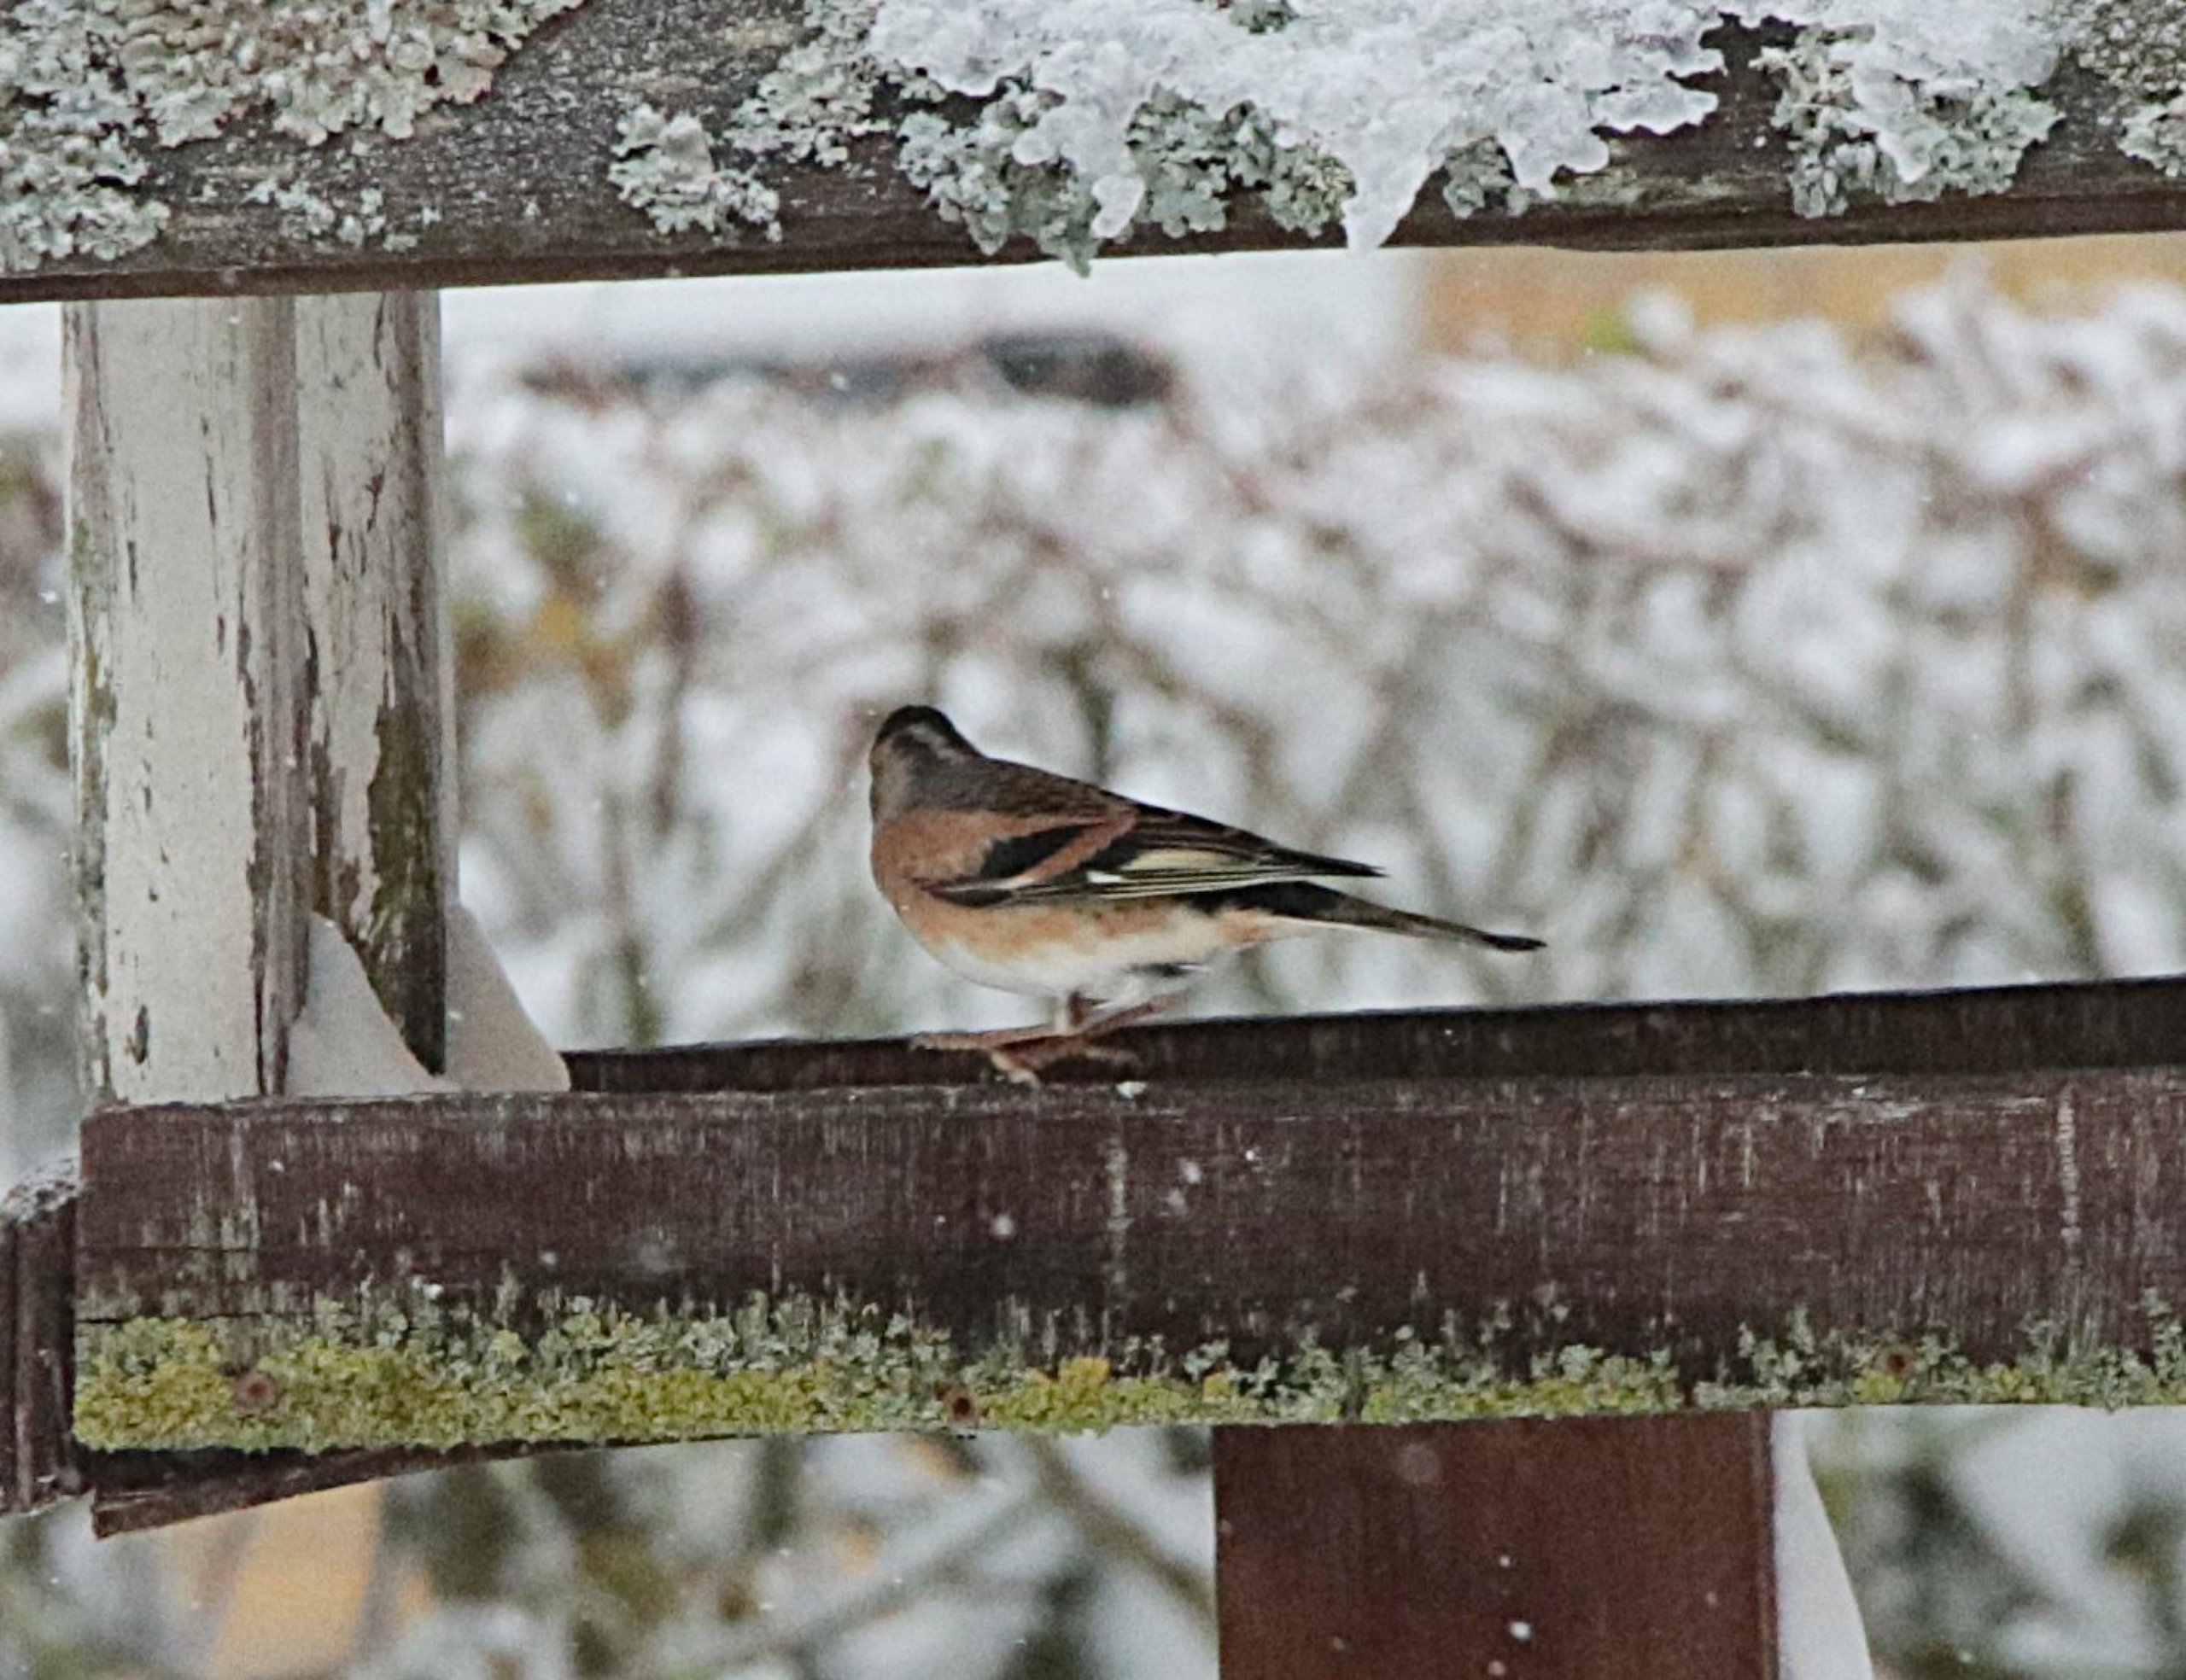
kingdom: Animalia
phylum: Chordata
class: Aves
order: Passeriformes
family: Fringillidae
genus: Fringilla
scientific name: Fringilla montifringilla
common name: Kvækerfinke
